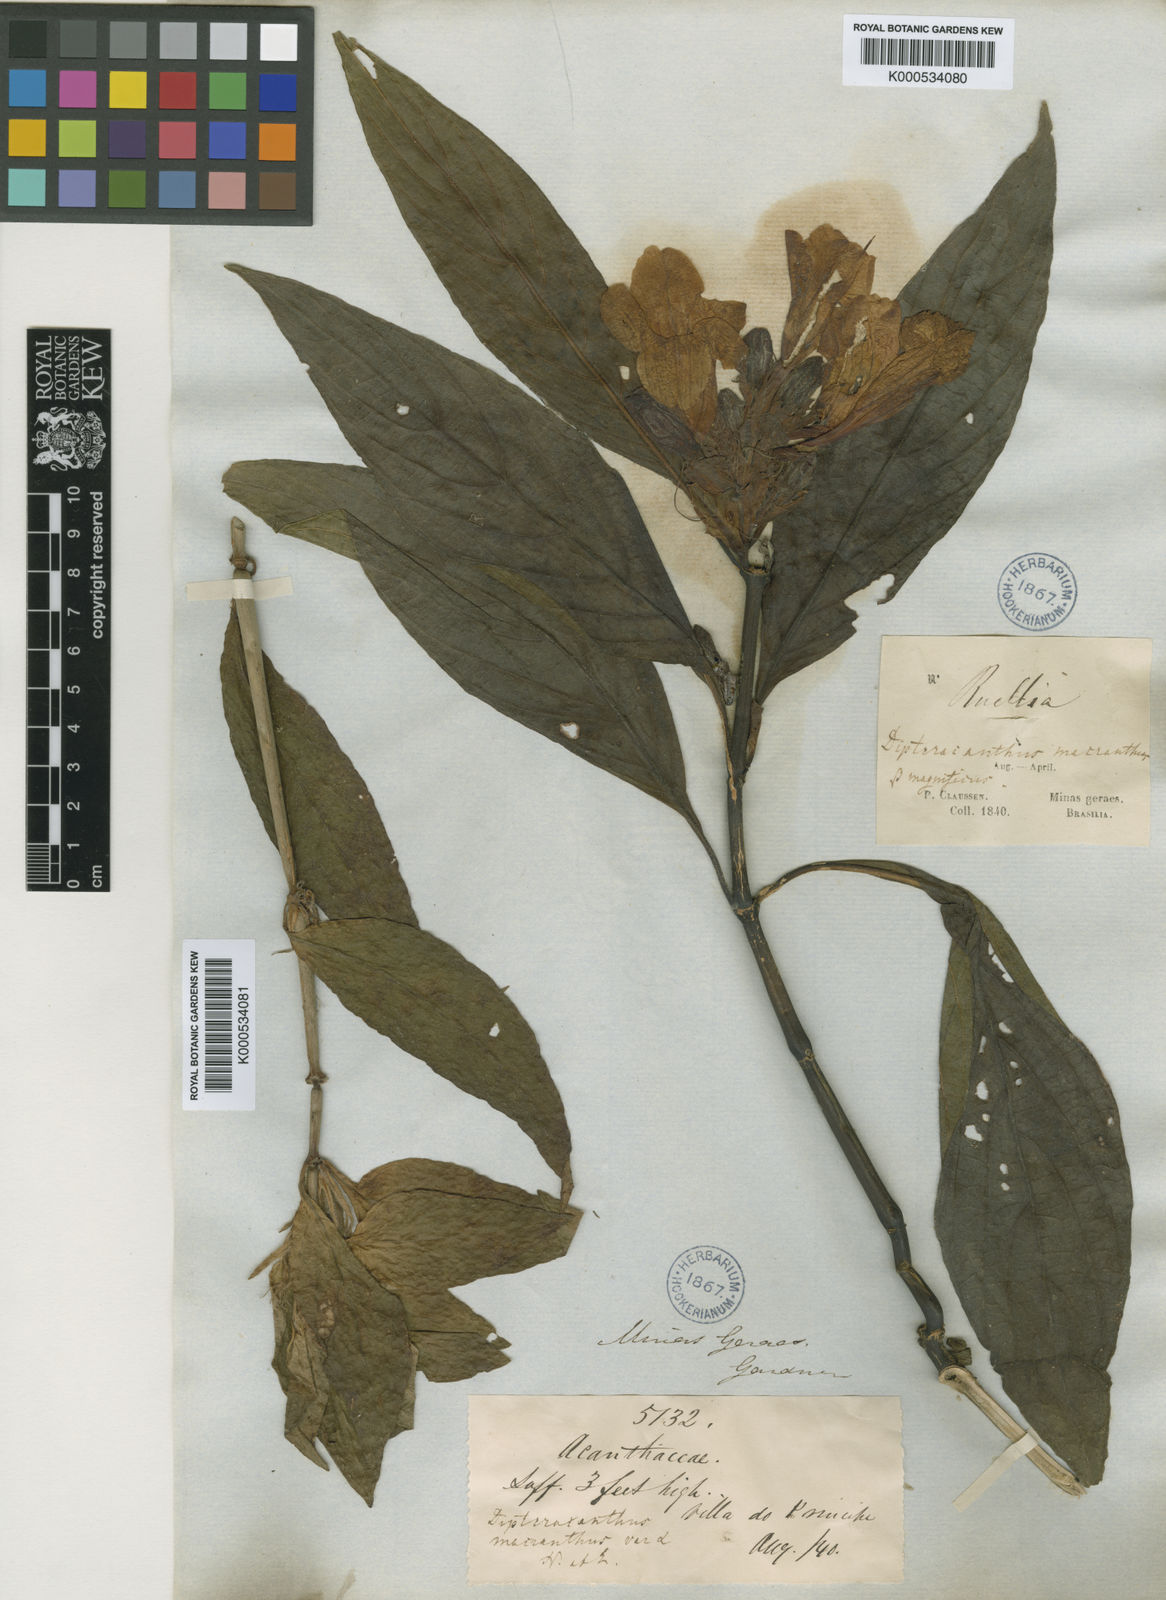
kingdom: Plantae
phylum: Tracheophyta
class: Magnoliopsida
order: Lamiales
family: Acanthaceae
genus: Ruellia
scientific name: Ruellia
